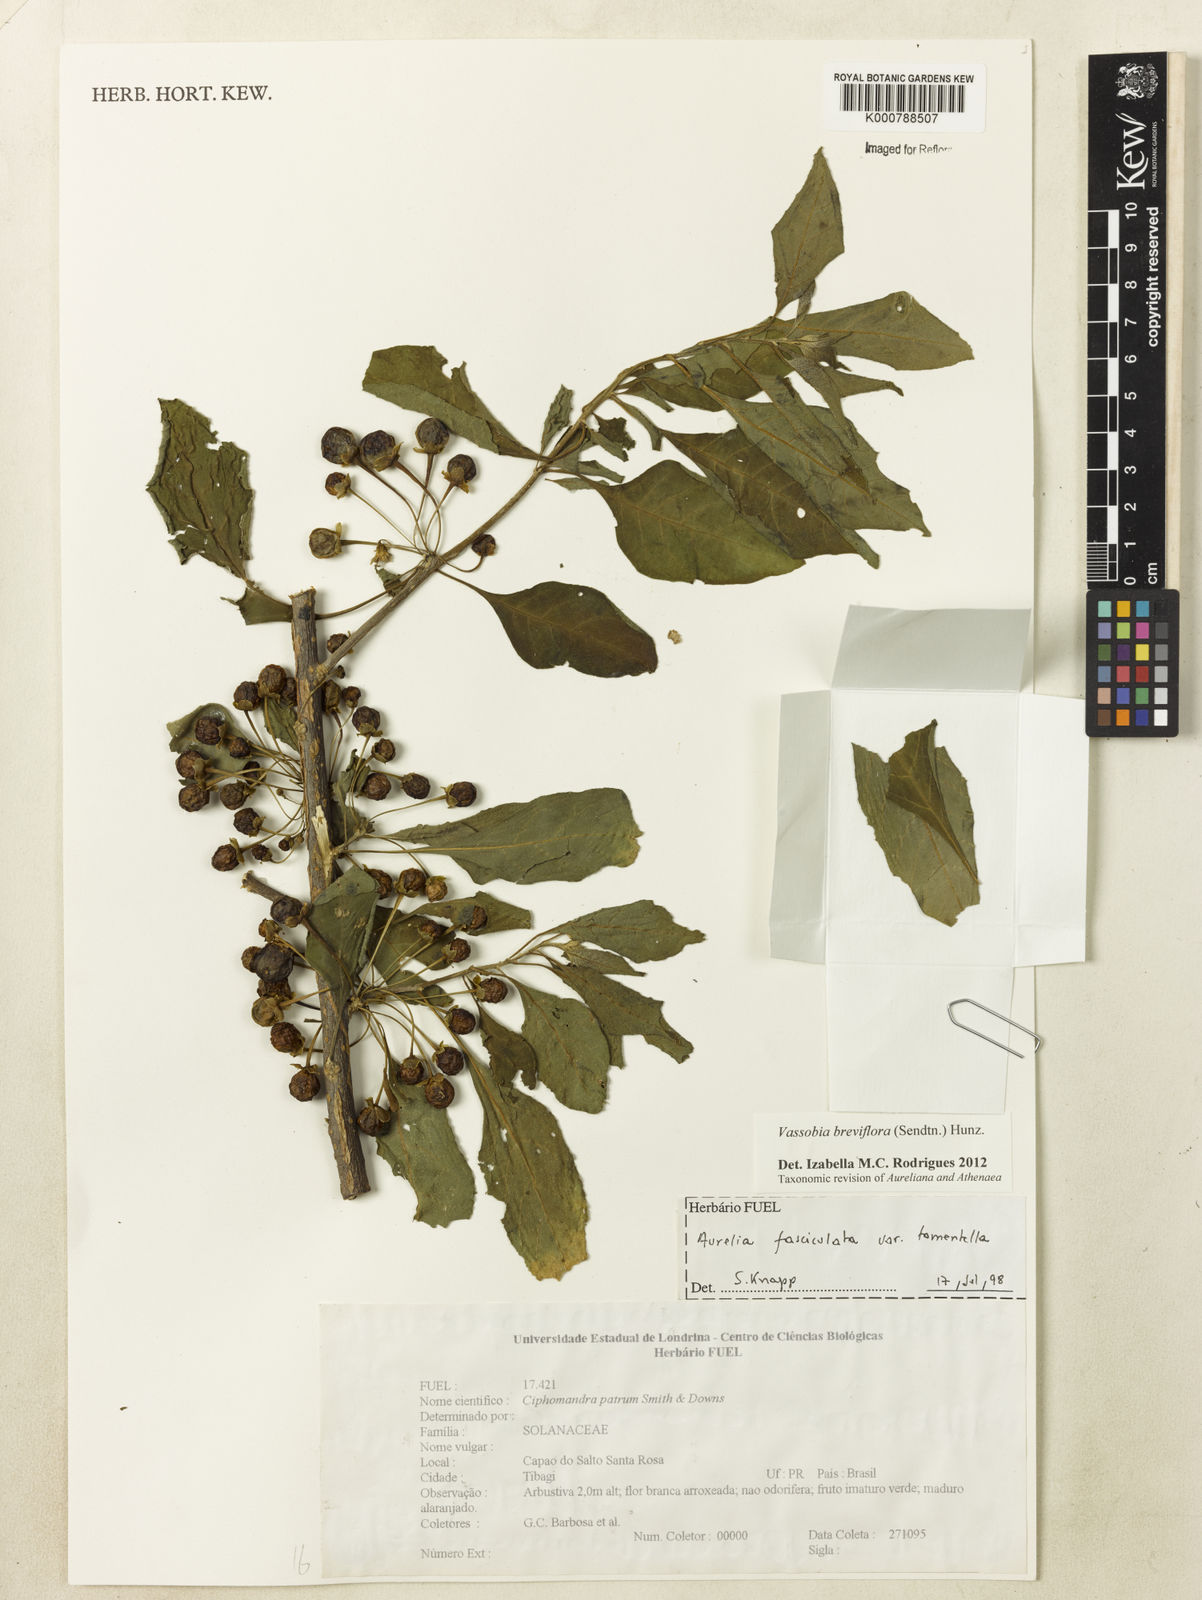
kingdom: Plantae
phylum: Tracheophyta
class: Magnoliopsida
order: Solanales
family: Solanaceae
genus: Vassobia
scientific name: Vassobia breviflora
